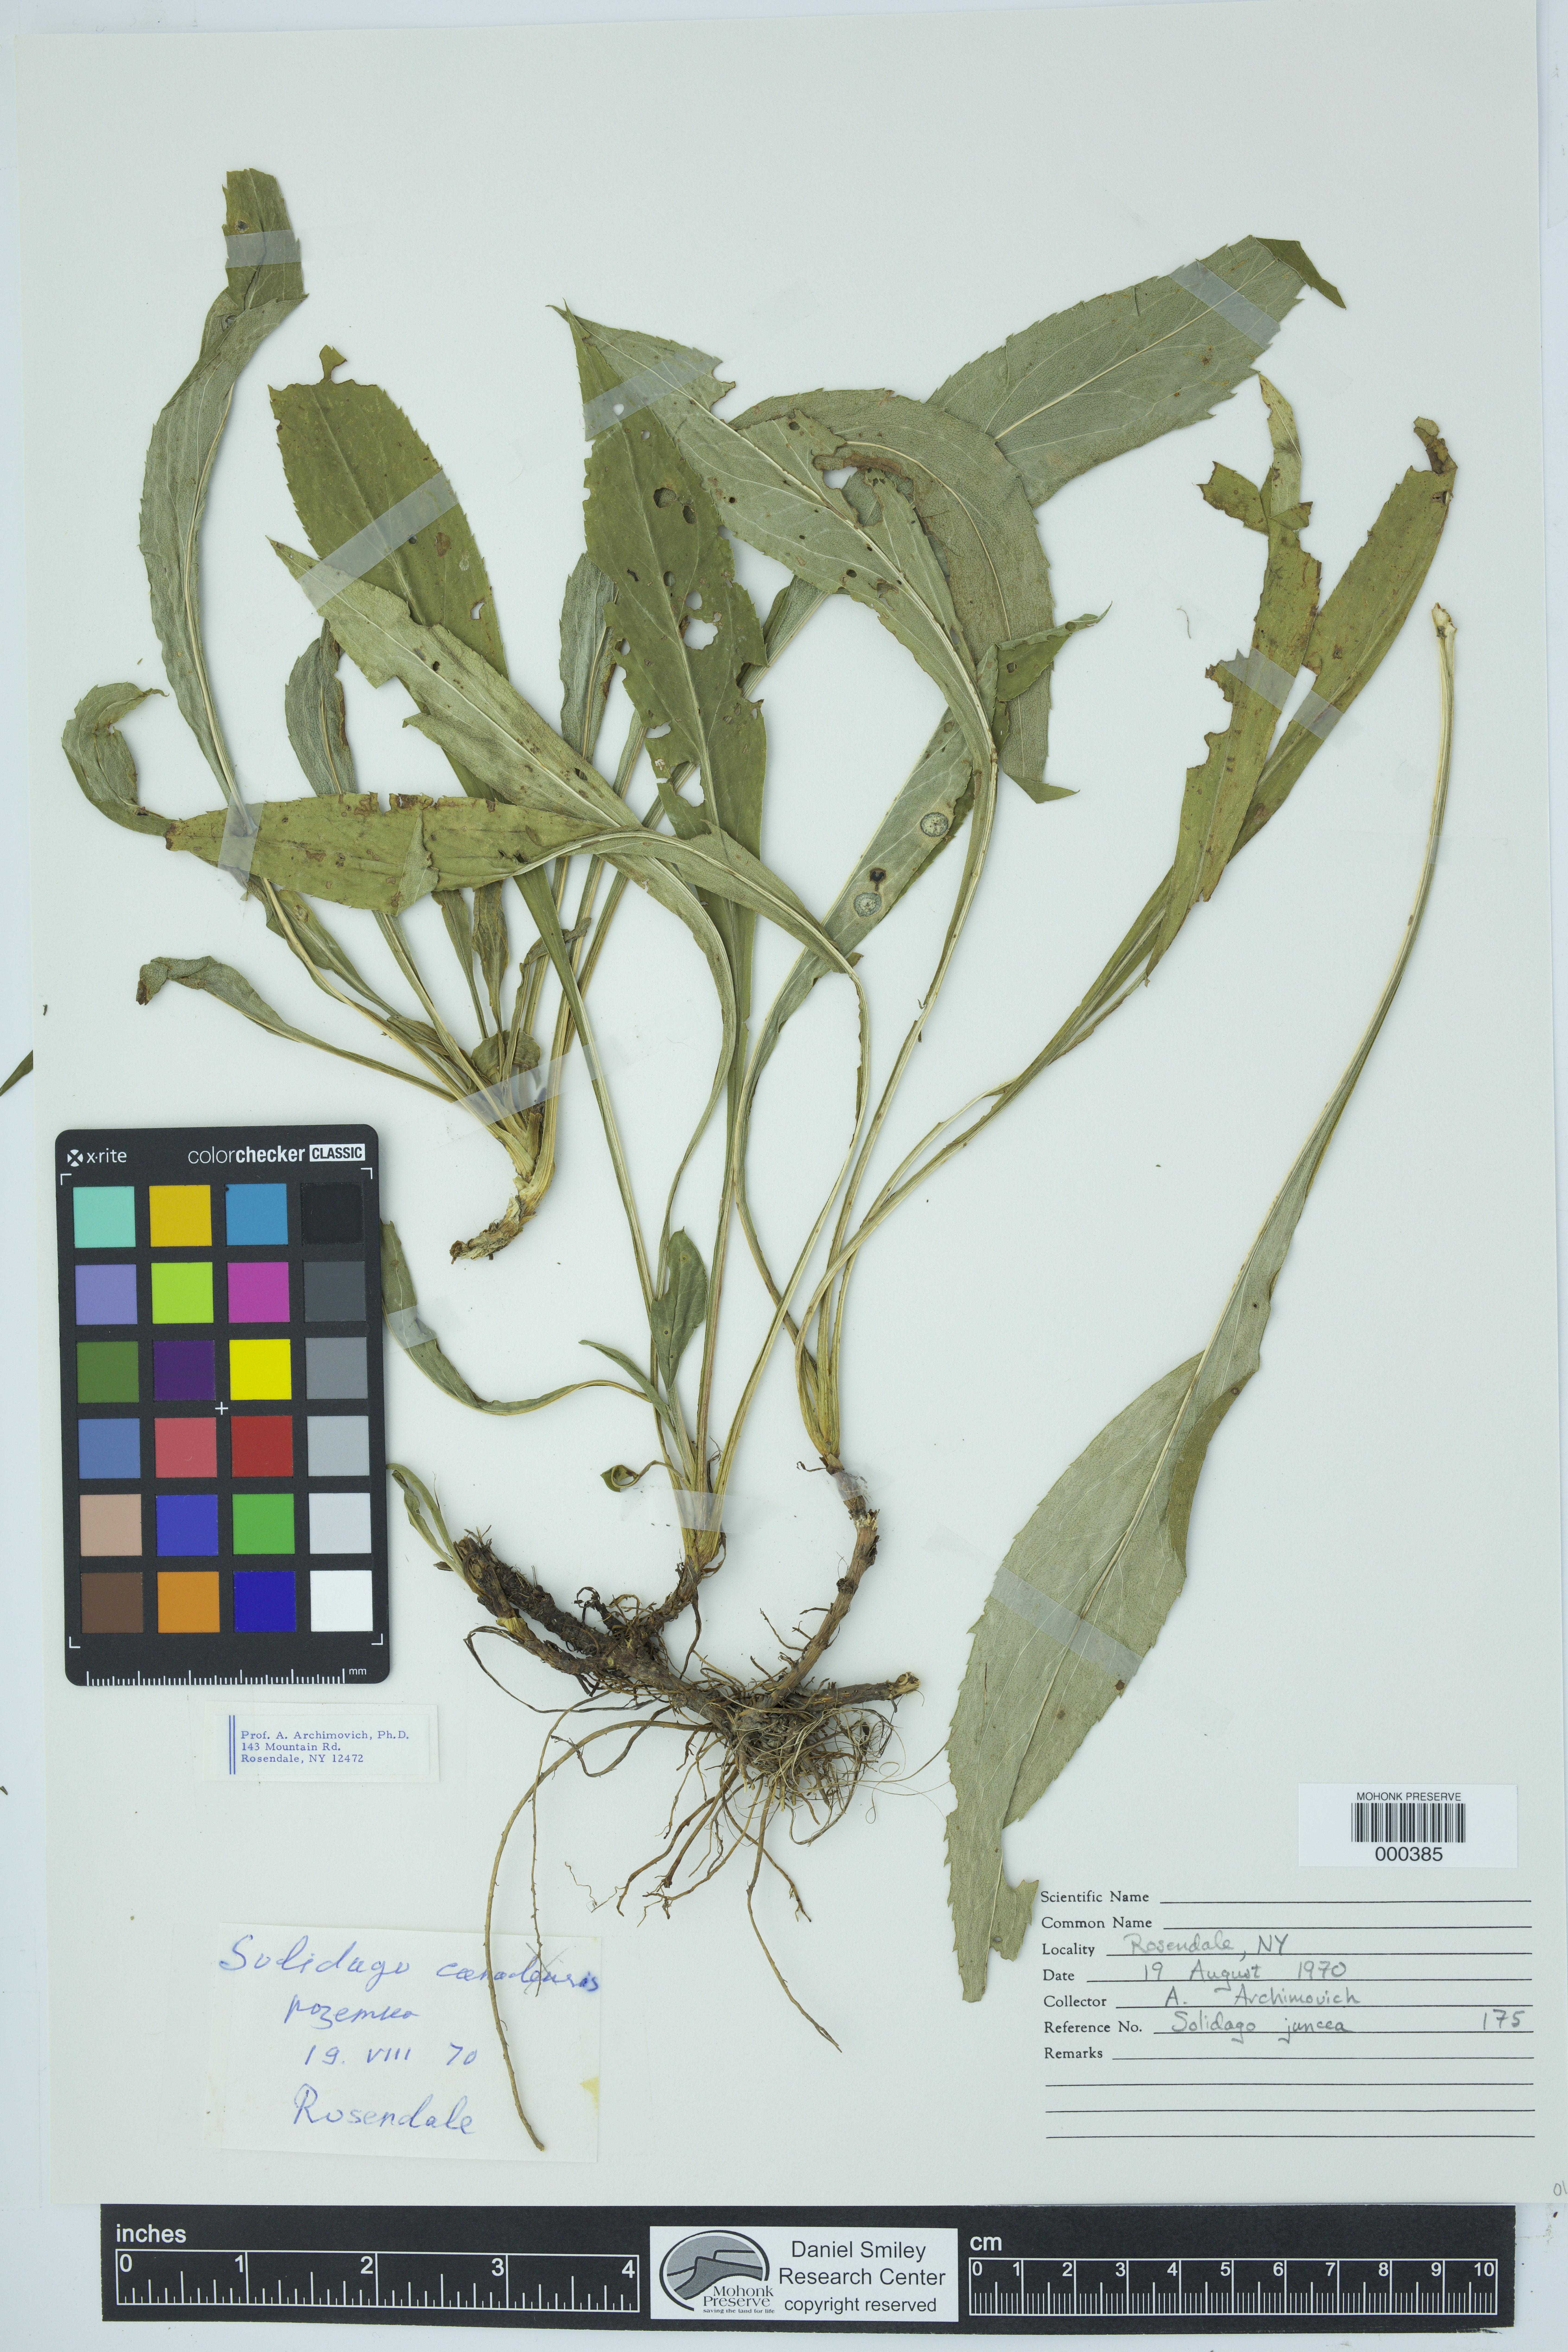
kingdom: Plantae
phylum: Tracheophyta
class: Magnoliopsida
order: Asterales
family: Asteraceae
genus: Solidago
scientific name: Solidago juncea
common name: Early goldenrod
